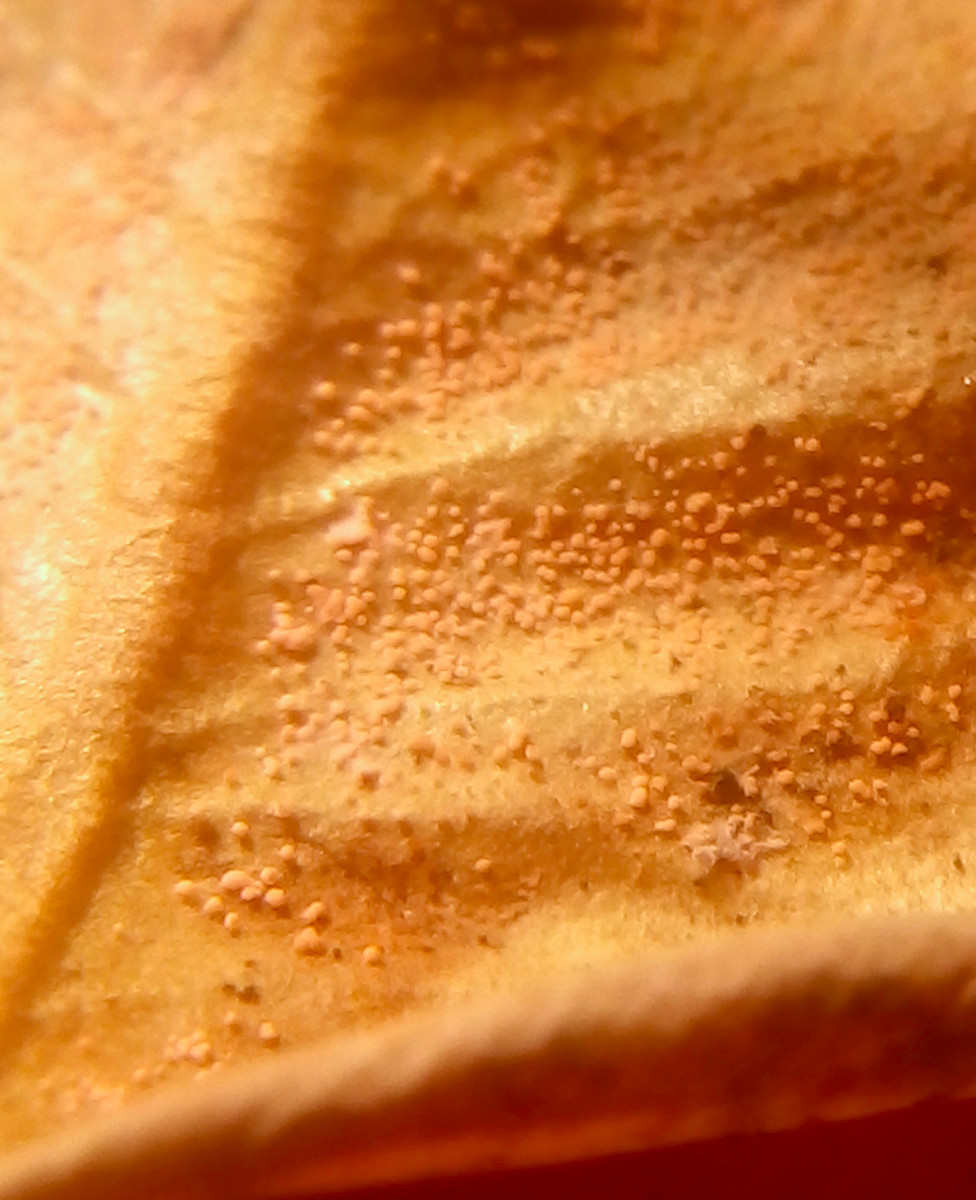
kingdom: Fungi
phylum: Ascomycota
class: Sordariomycetes
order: Hypocreales
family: Nectriaceae
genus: Pseudonectria
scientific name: Pseudonectria buxi
